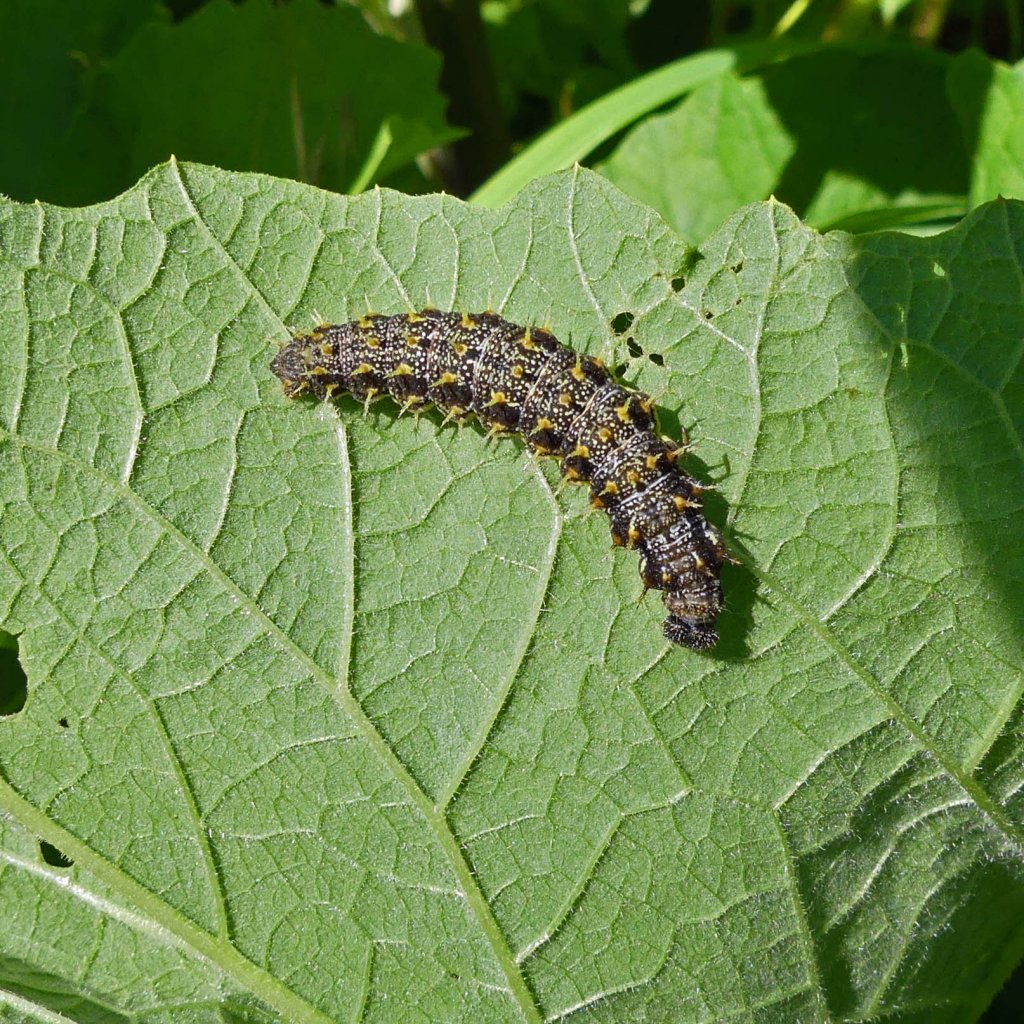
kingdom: Animalia
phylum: Arthropoda
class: Insecta
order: Lepidoptera
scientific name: Lepidoptera
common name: Butterflies
